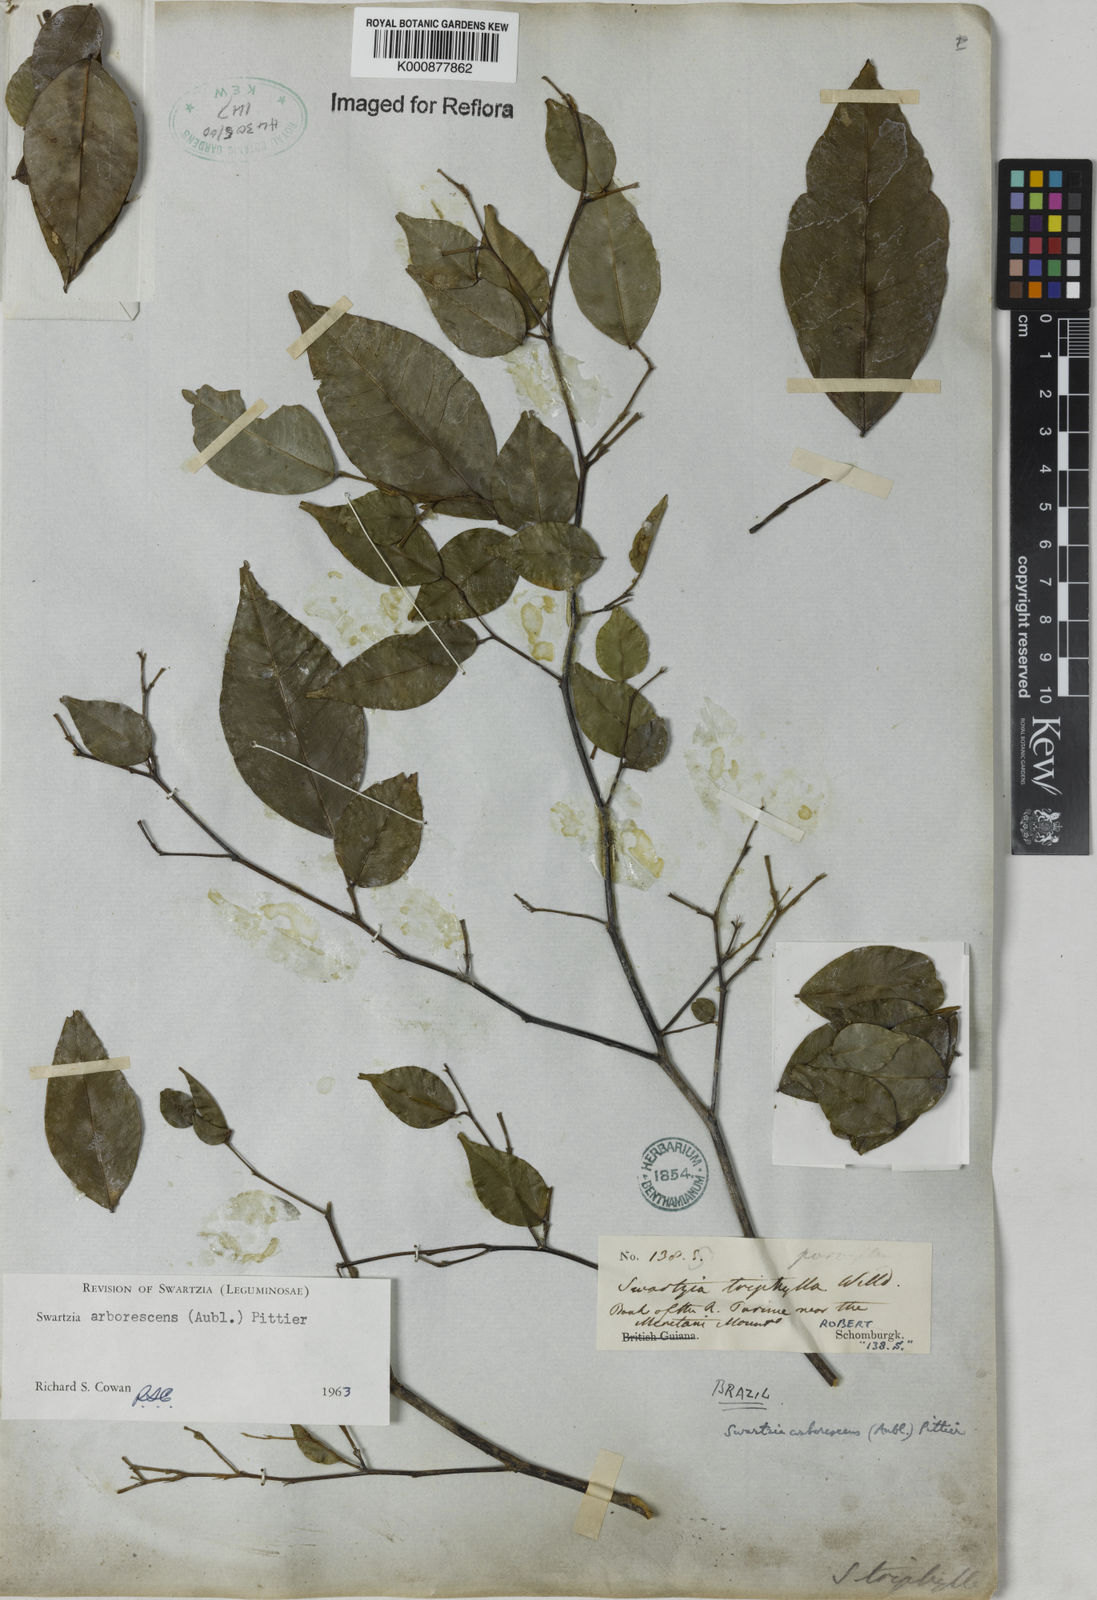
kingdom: Plantae
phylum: Tracheophyta
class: Magnoliopsida
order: Fabales
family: Fabaceae
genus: Swartzia
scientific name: Swartzia arborescens
